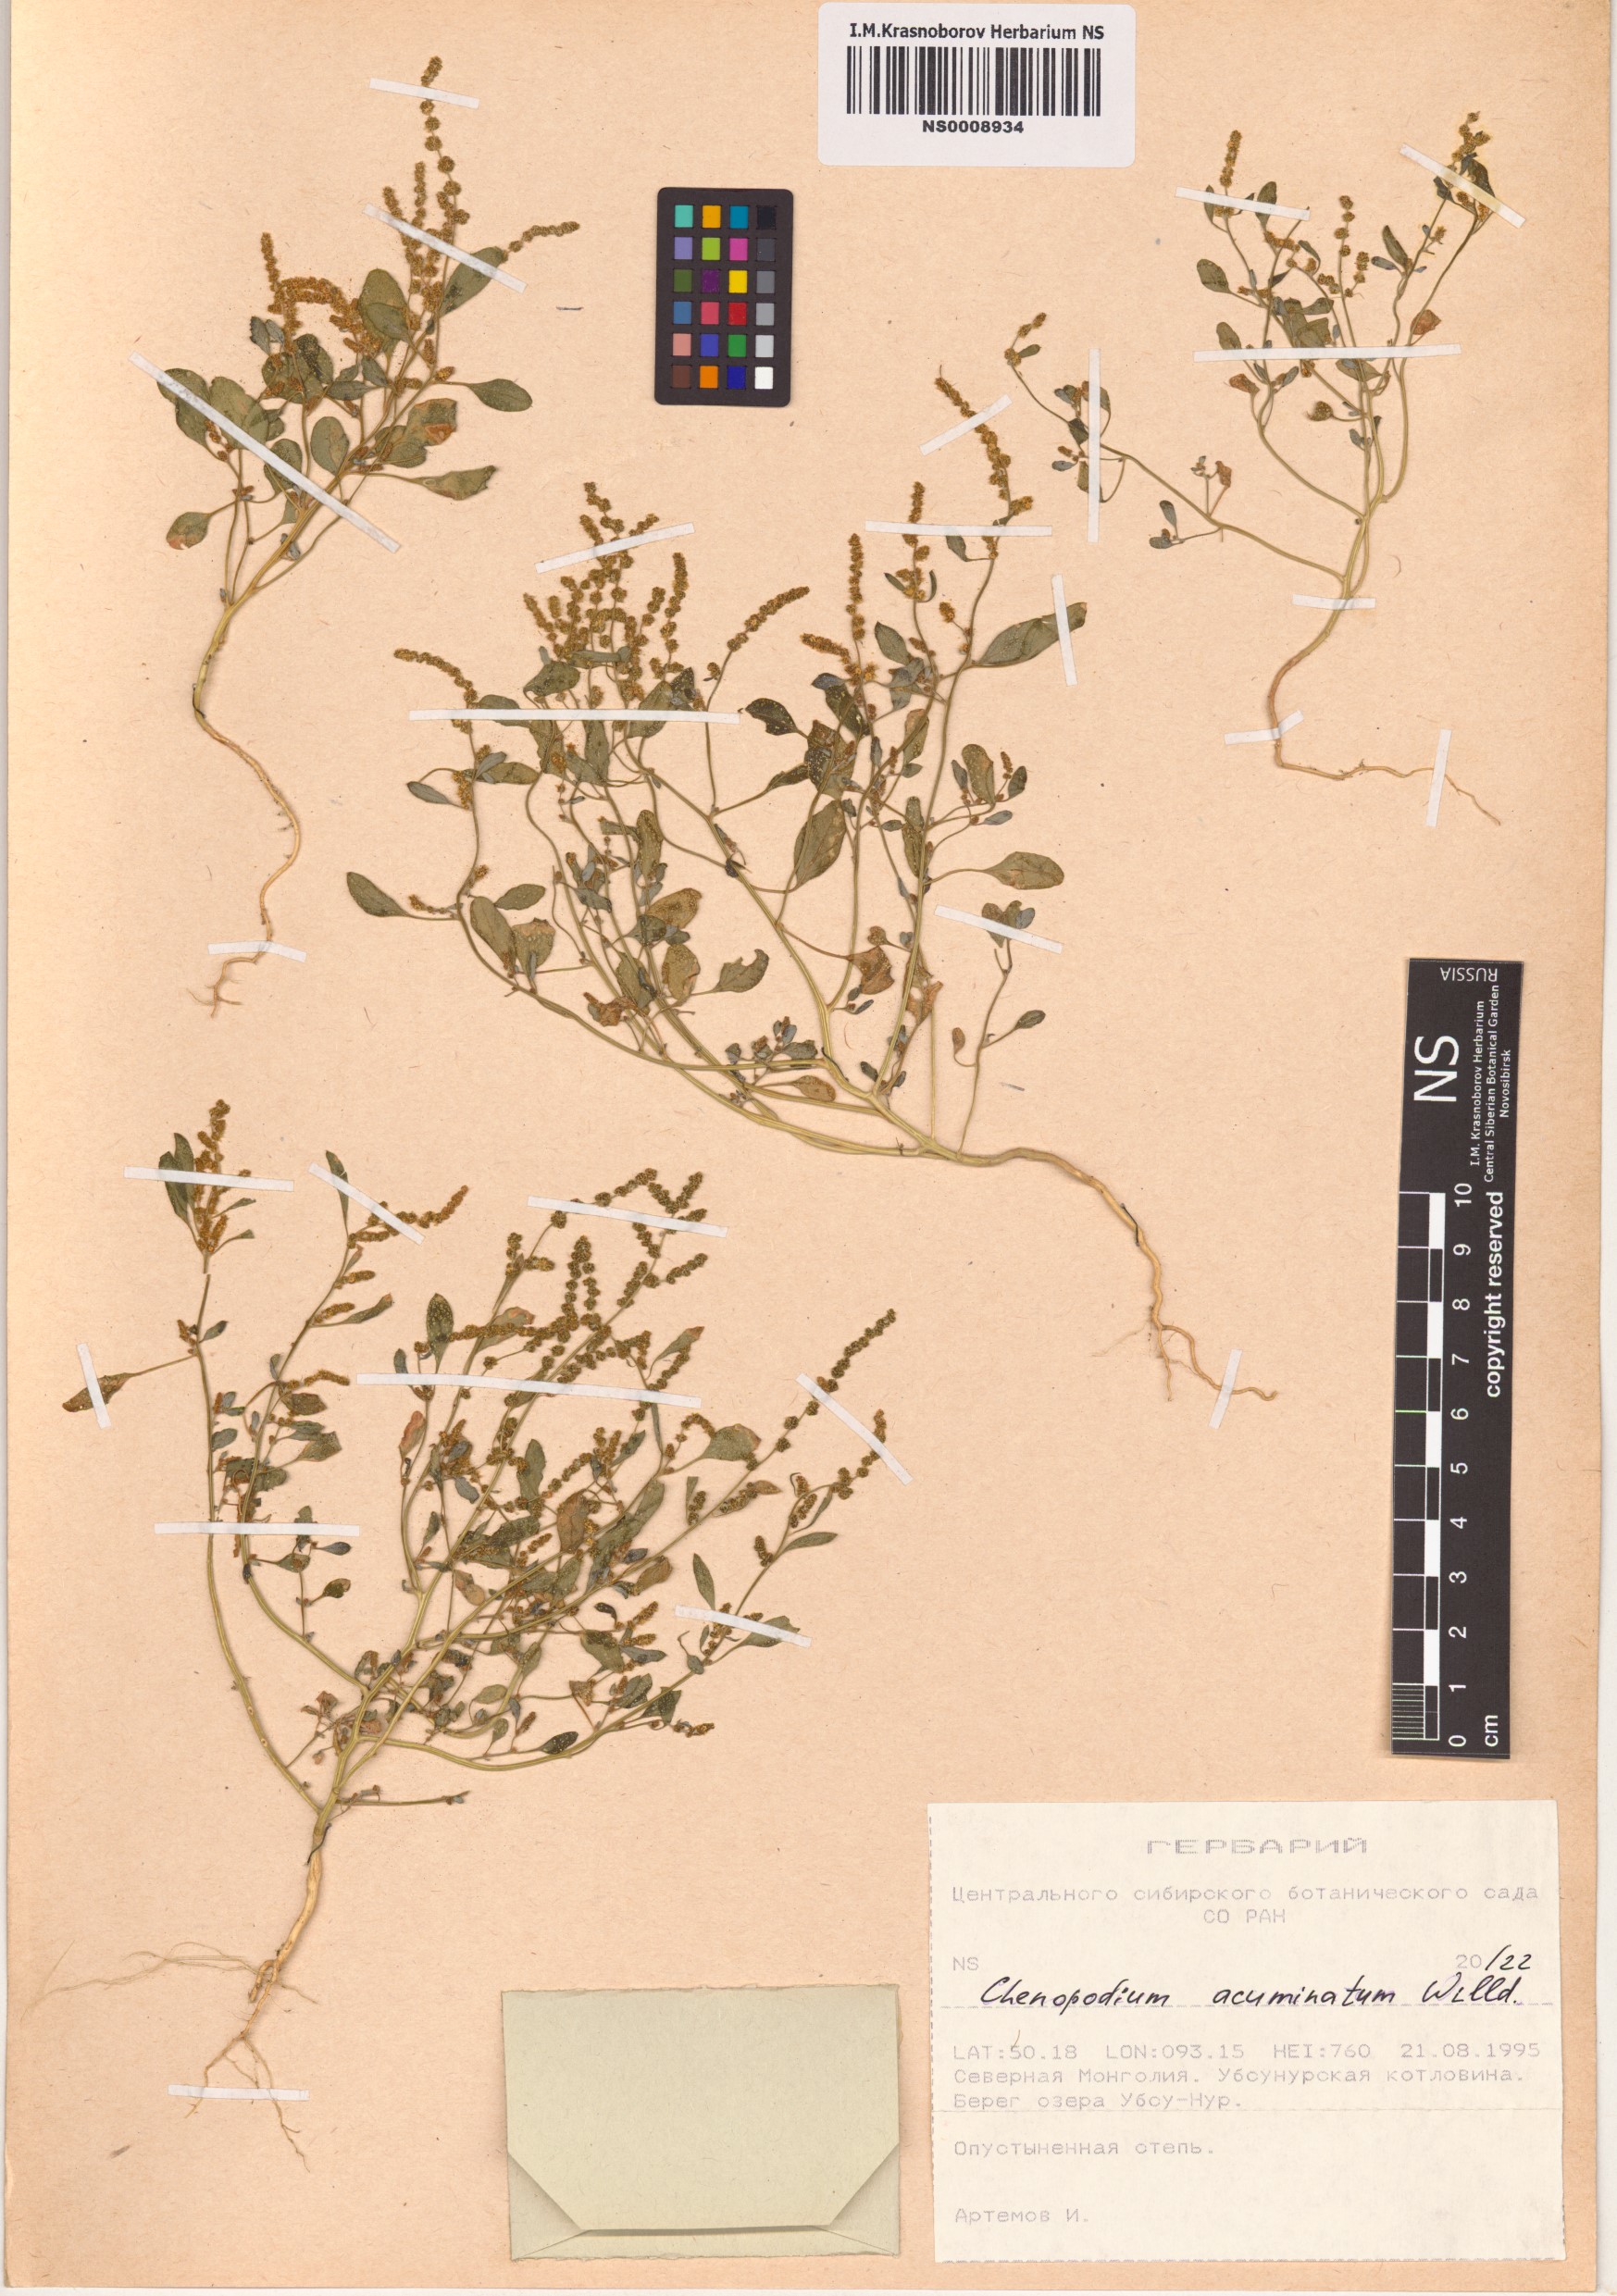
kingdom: Plantae
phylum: Tracheophyta
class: Magnoliopsida
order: Caryophyllales
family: Amaranthaceae
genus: Chenopodium
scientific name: Chenopodium acuminatum
